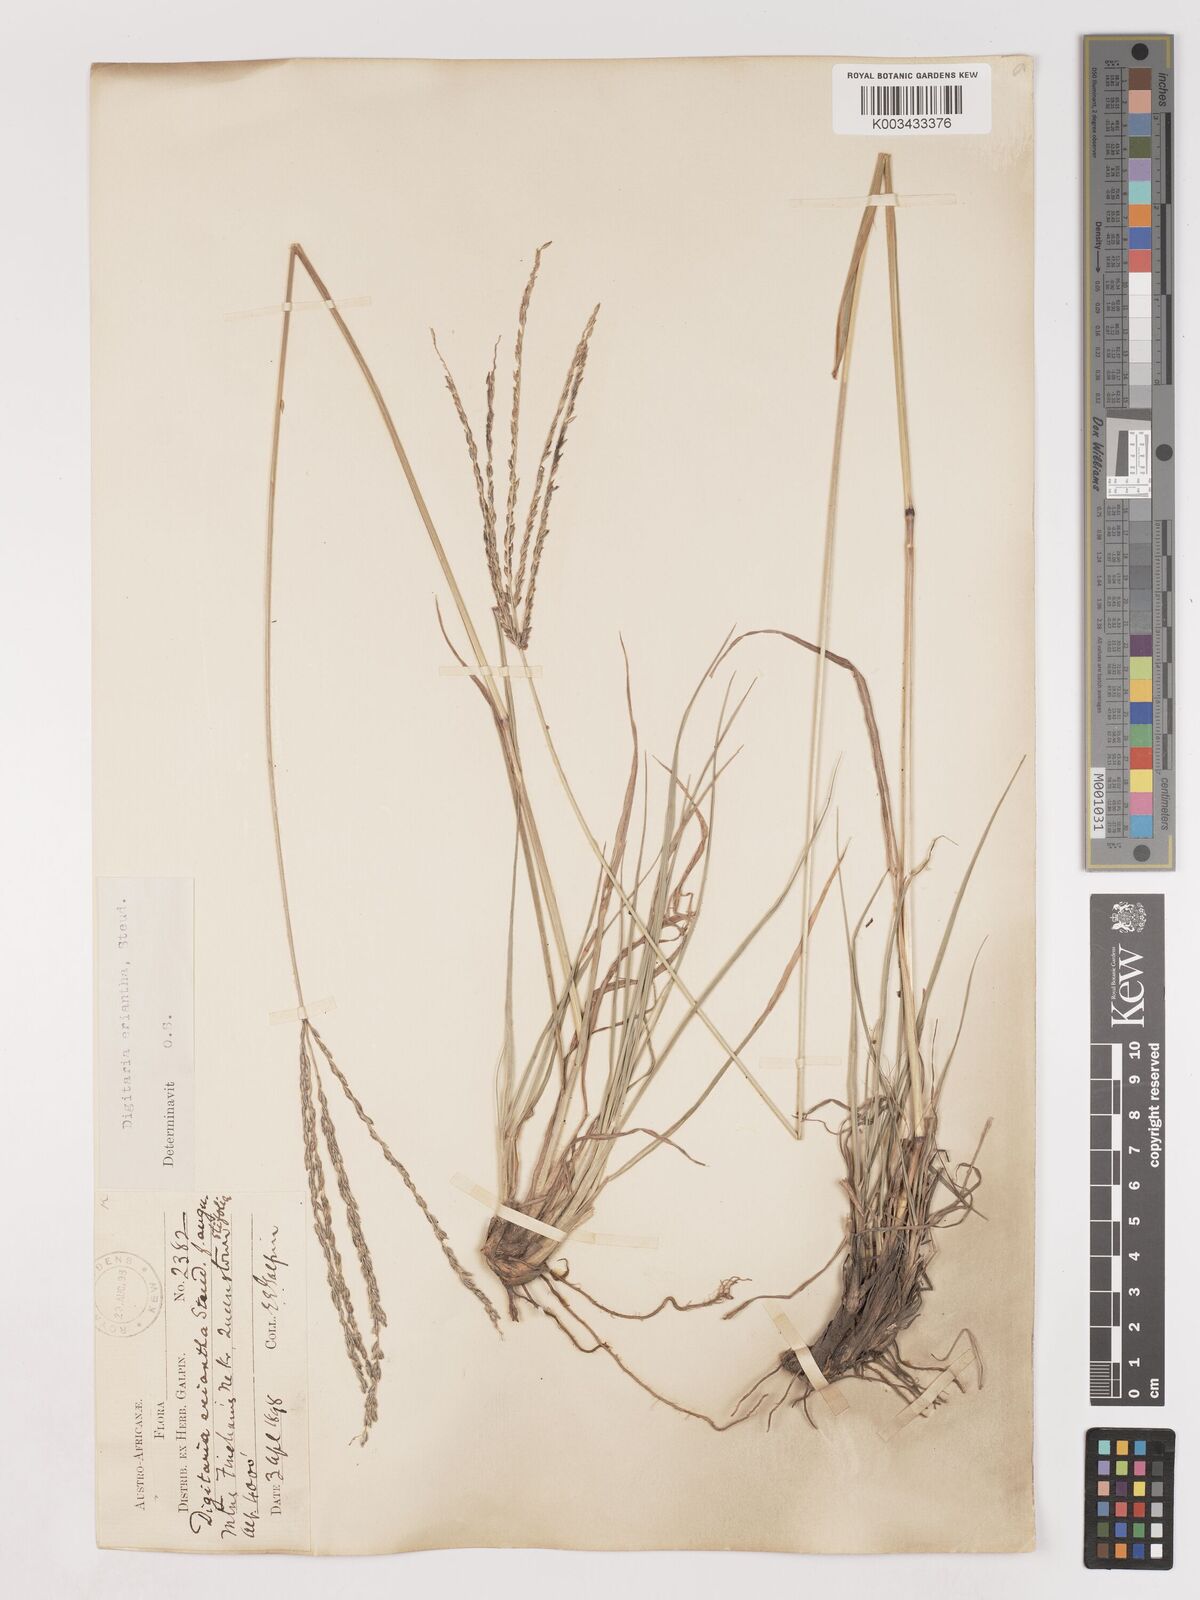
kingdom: Plantae
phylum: Tracheophyta
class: Liliopsida
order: Poales
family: Poaceae
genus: Digitaria
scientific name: Digitaria eriantha
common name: Digitgrass
